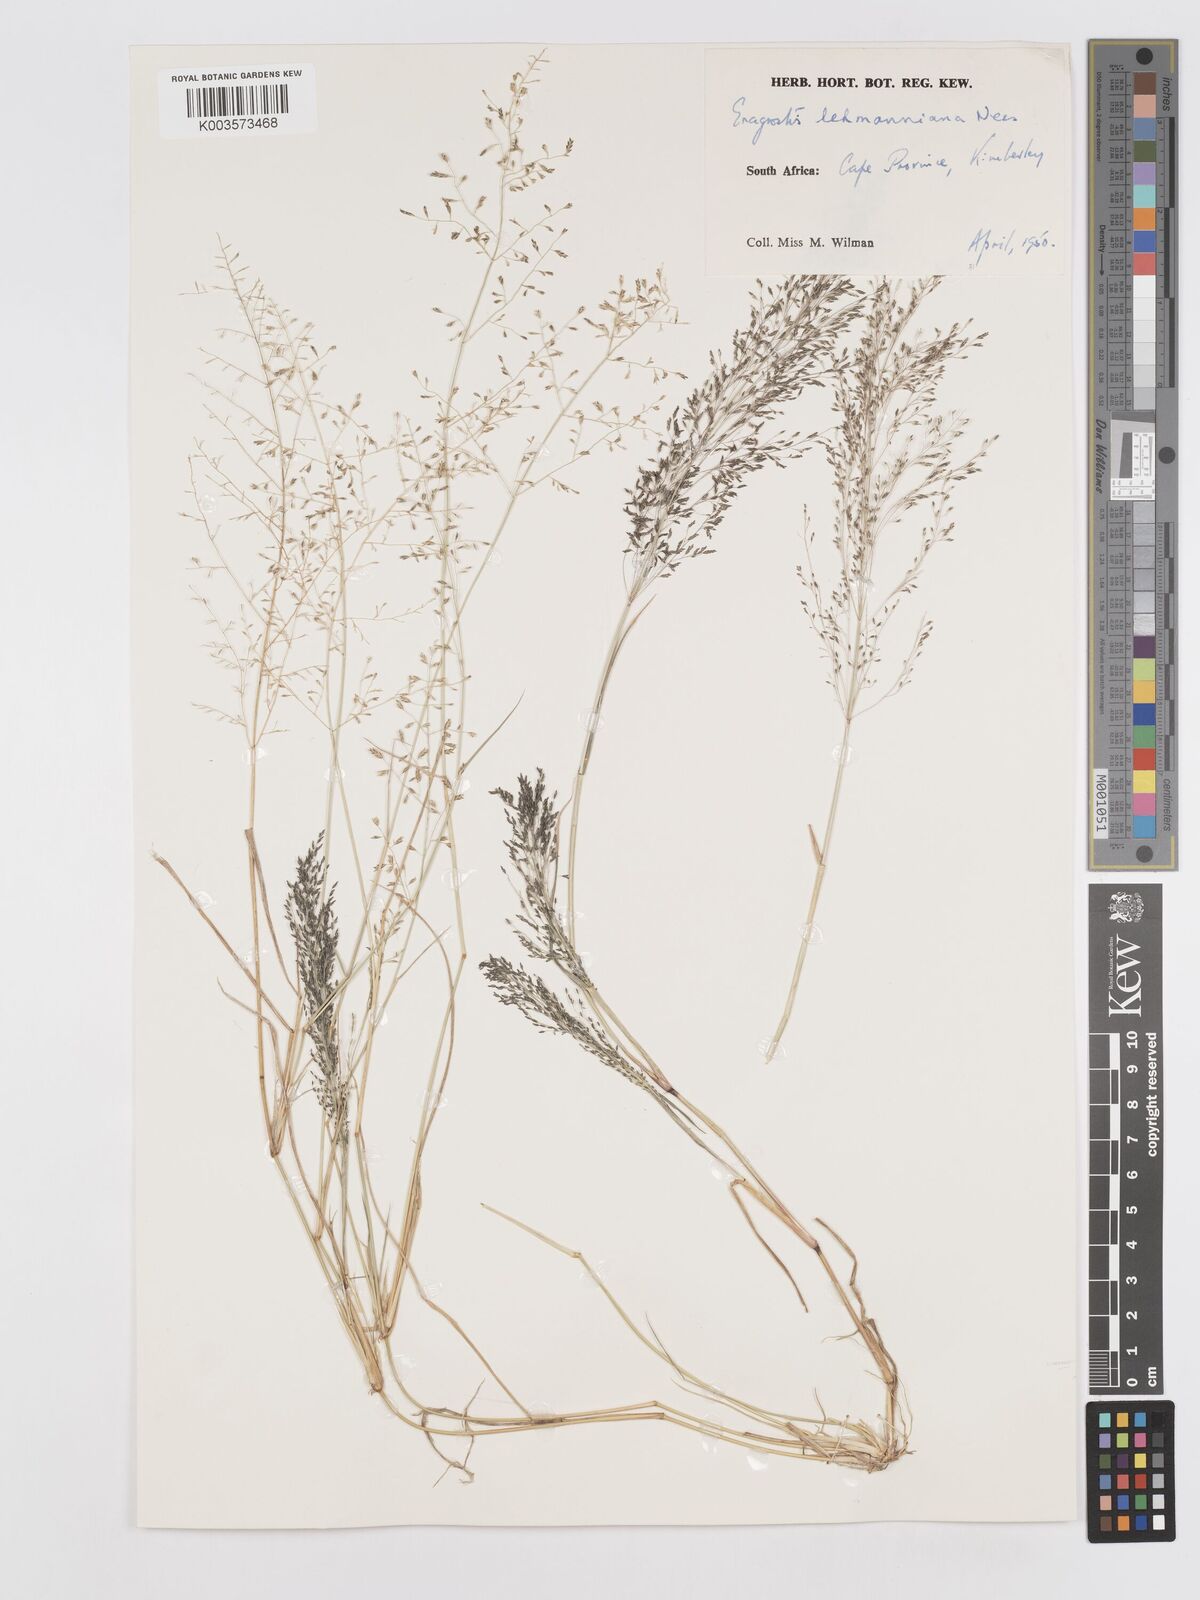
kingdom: Plantae
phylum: Tracheophyta
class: Liliopsida
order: Poales
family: Poaceae
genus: Eragrostis
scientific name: Eragrostis lehmanniana
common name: Lehmann lovegrass
